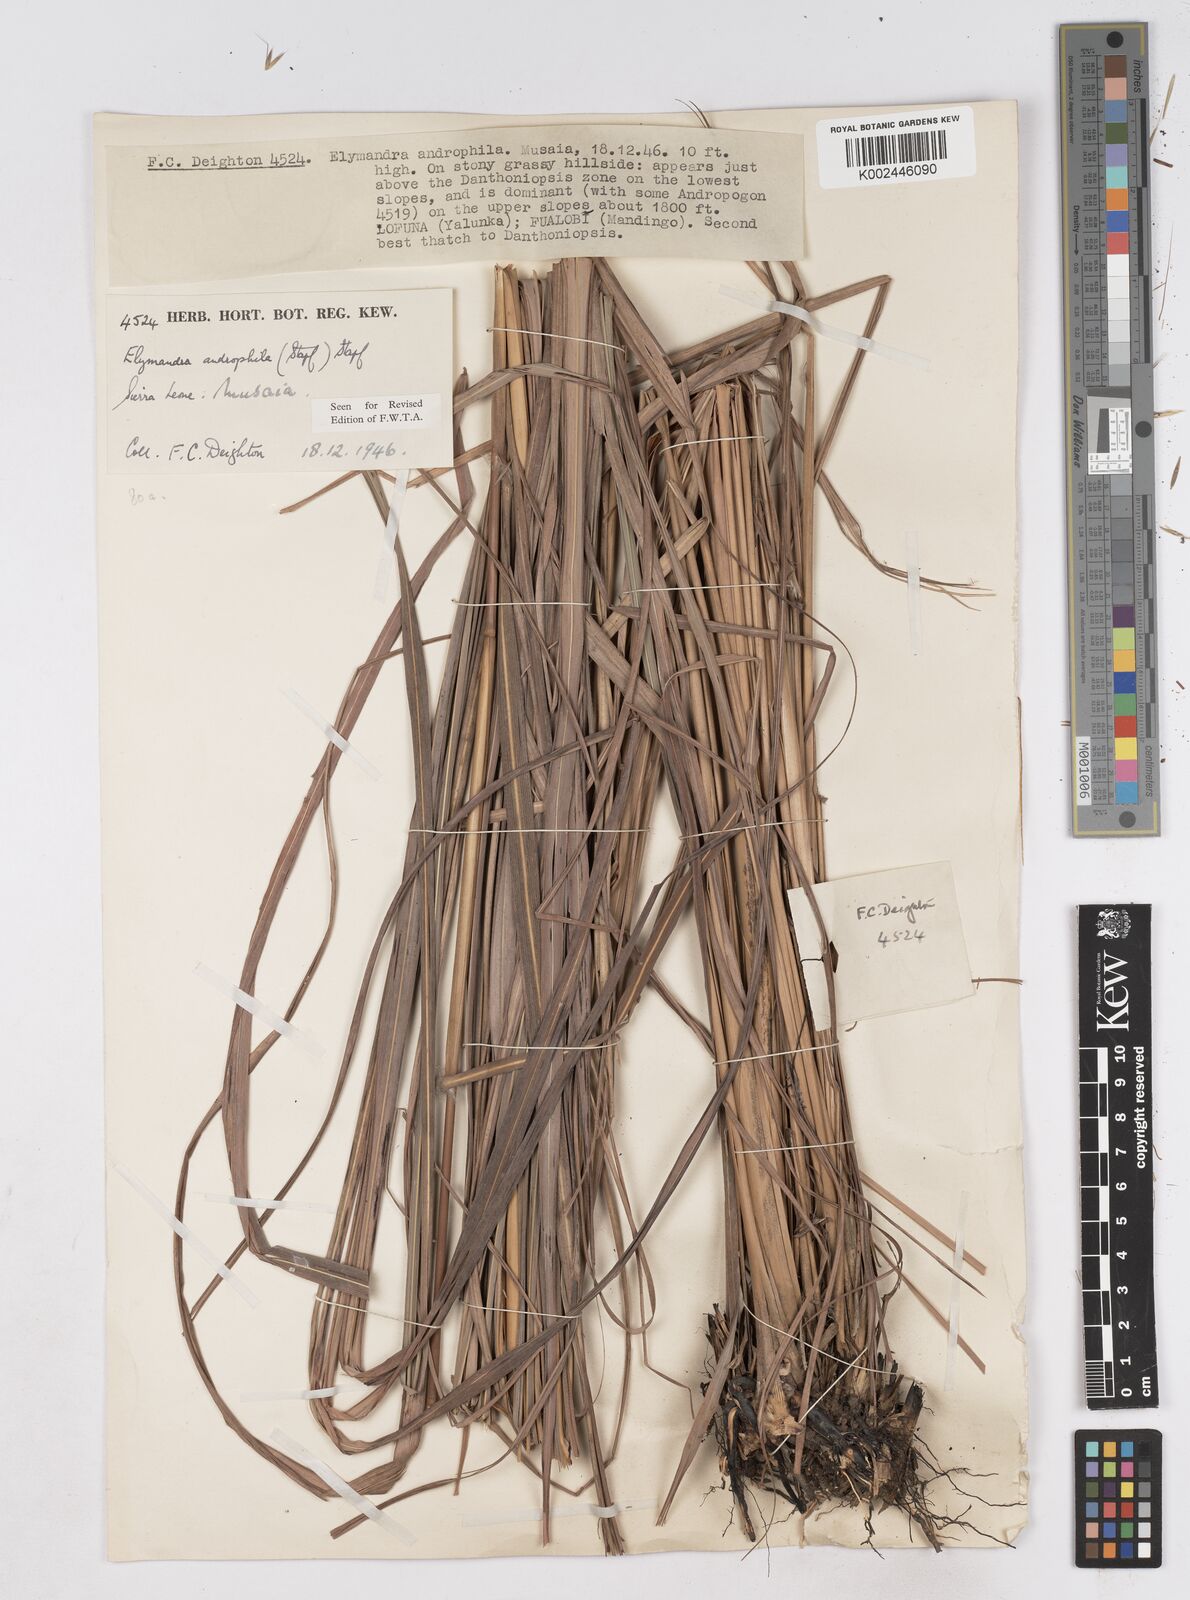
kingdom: Plantae
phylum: Tracheophyta
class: Liliopsida
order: Poales
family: Poaceae
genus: Elymandra
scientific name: Elymandra androphila
